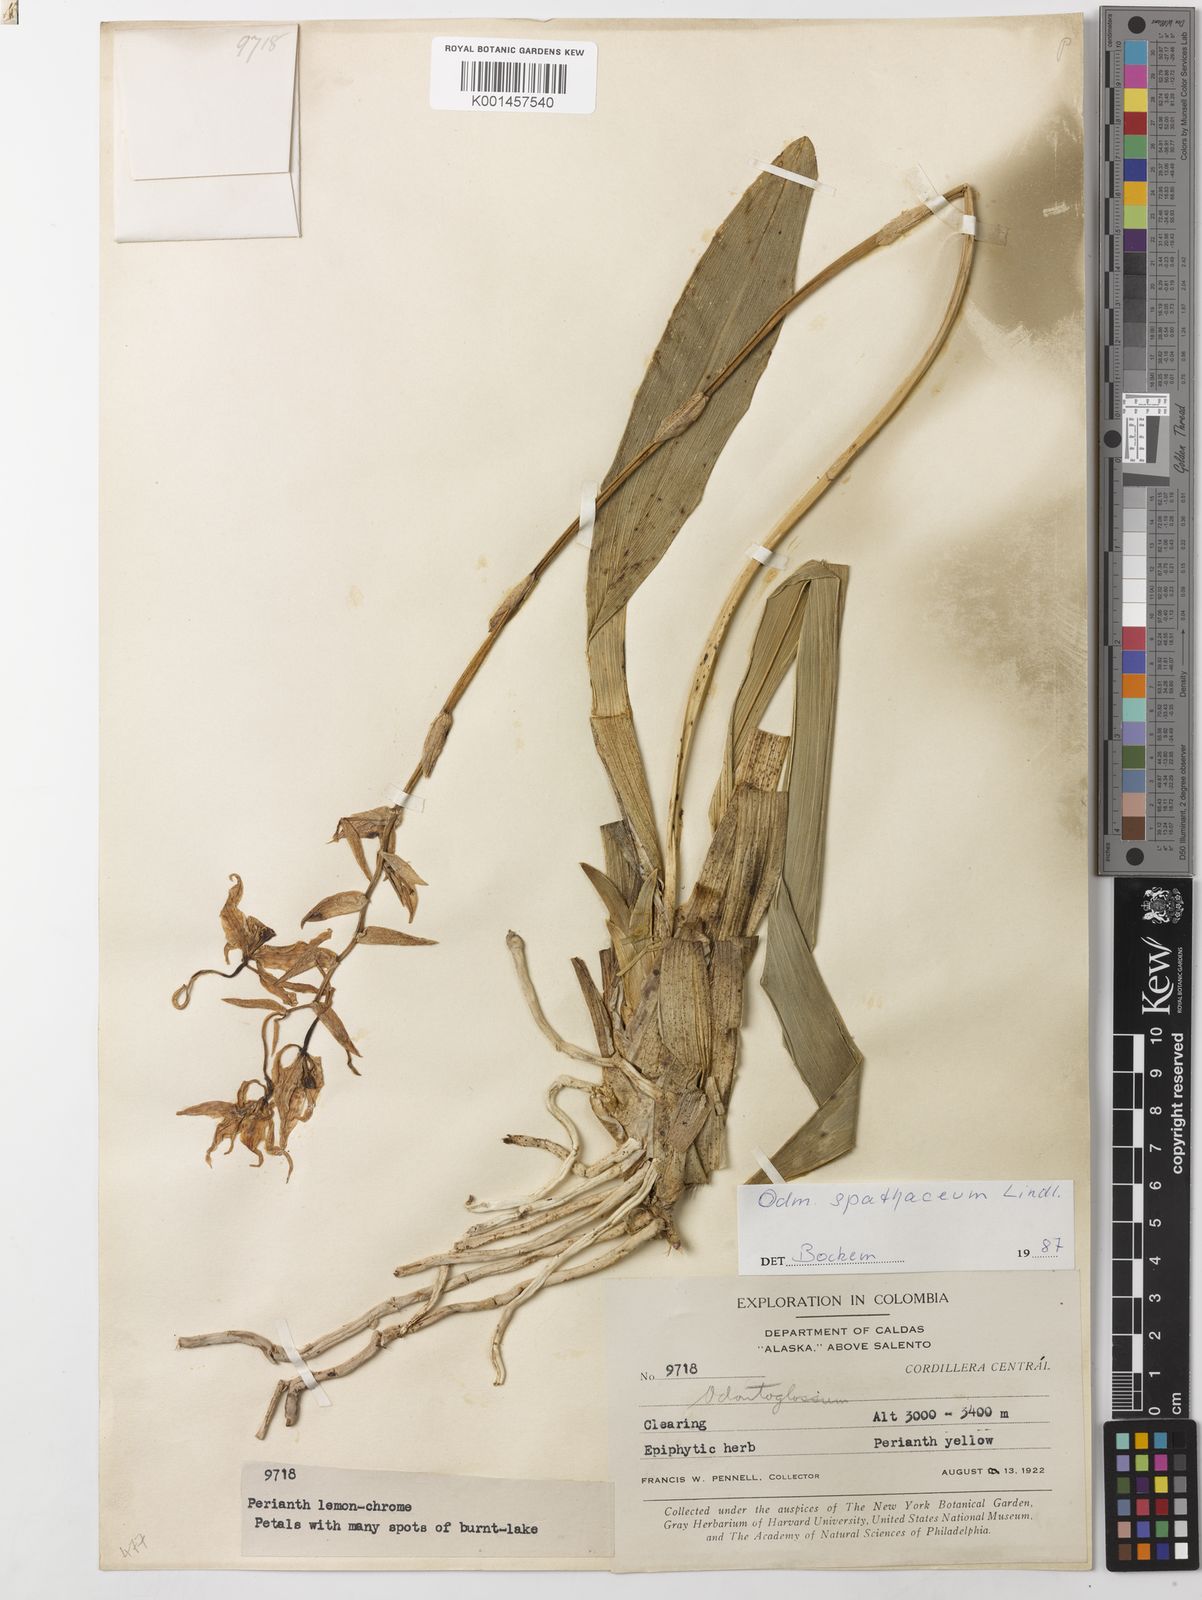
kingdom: Plantae
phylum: Tracheophyta
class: Liliopsida
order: Asparagales
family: Orchidaceae
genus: Cyrtochilum
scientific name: Cyrtochilum pardinum
